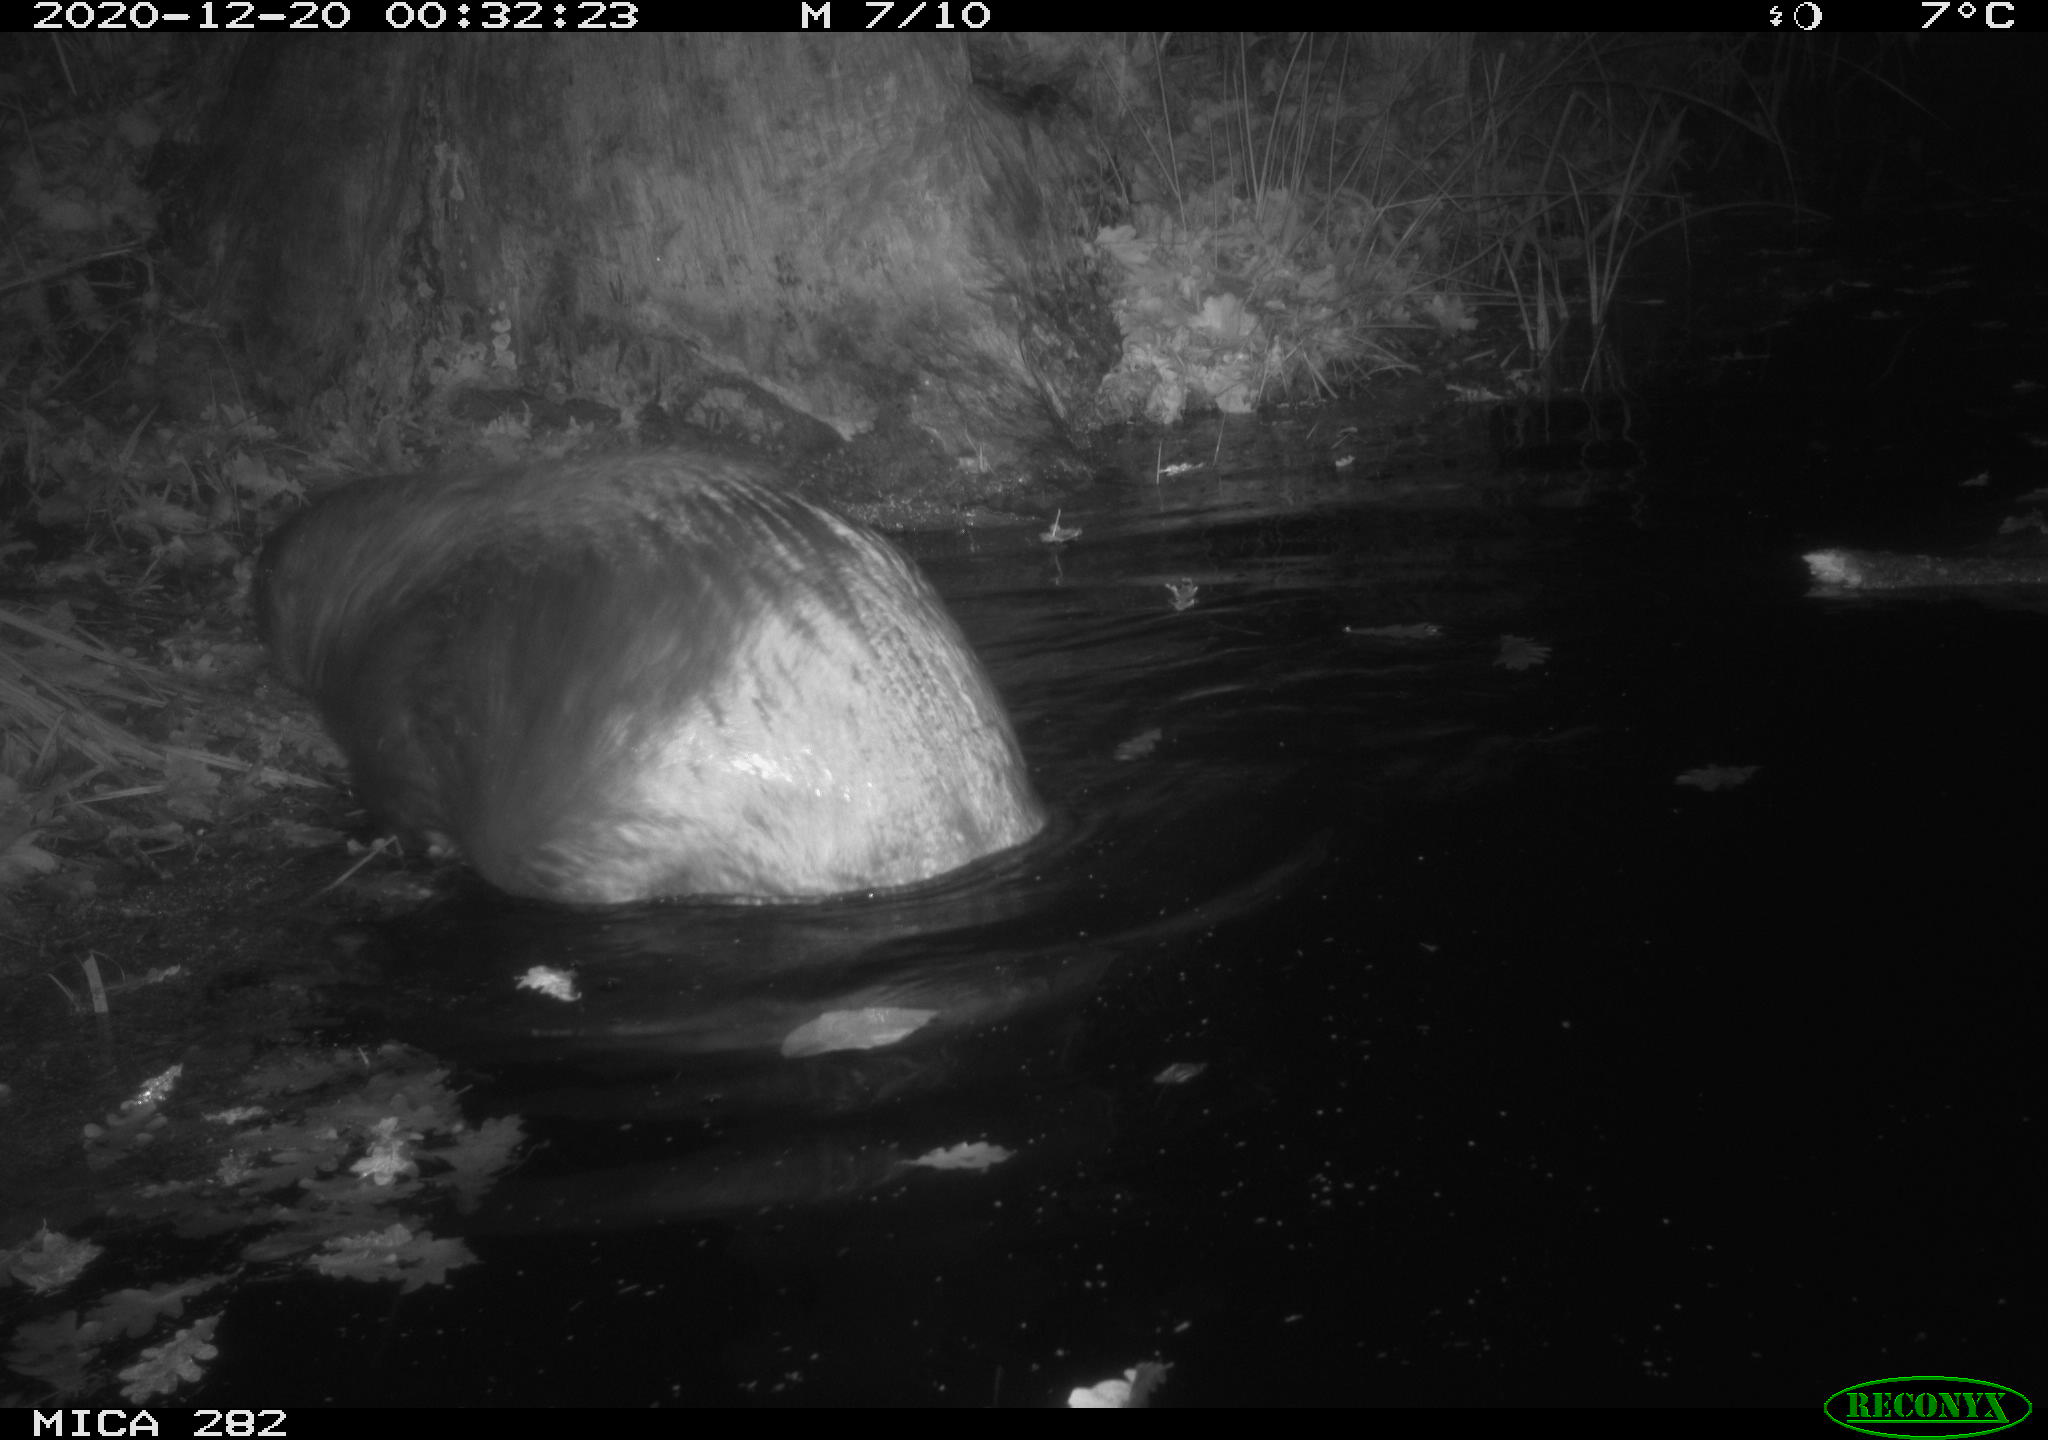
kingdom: Animalia
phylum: Chordata
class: Mammalia
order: Rodentia
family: Castoridae
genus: Castor
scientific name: Castor fiber
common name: Eurasian beaver
